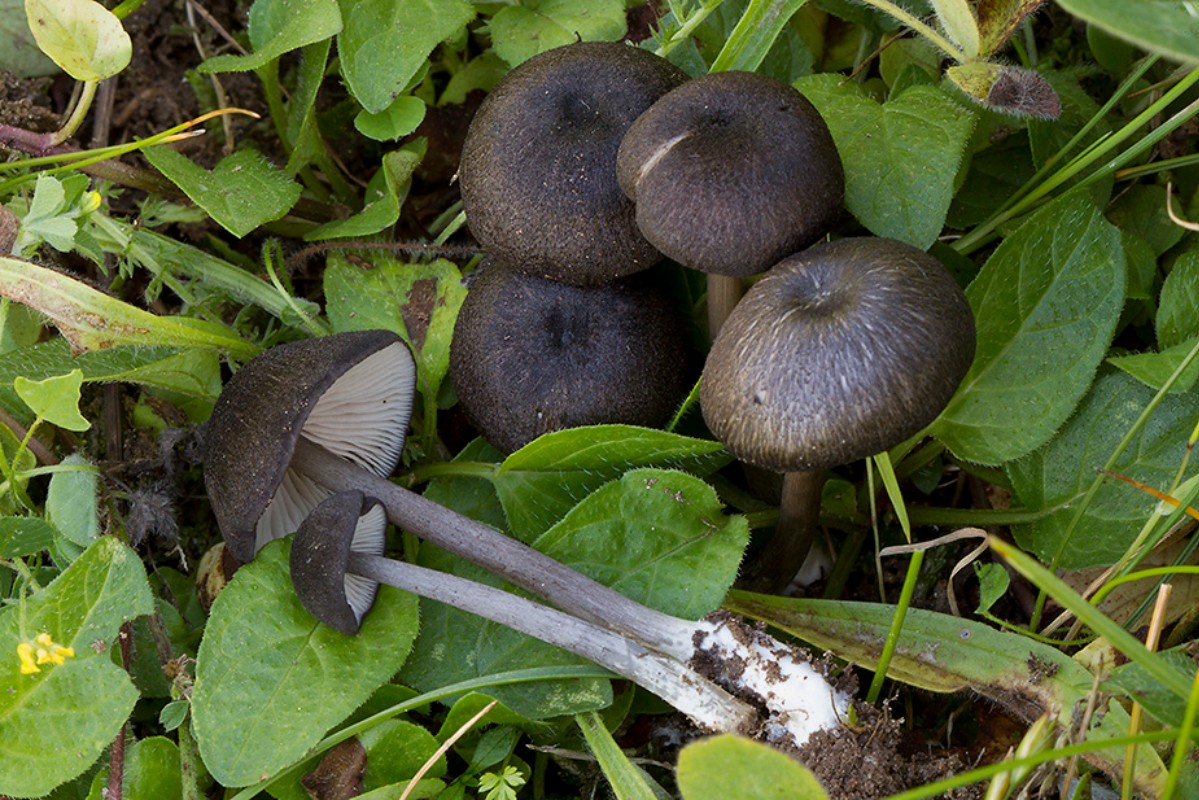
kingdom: Fungi
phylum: Basidiomycota
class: Agaricomycetes
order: Agaricales
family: Entolomataceae
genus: Entoloma
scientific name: Entoloma porphyrogriseum
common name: porfyrgrå rødblad
